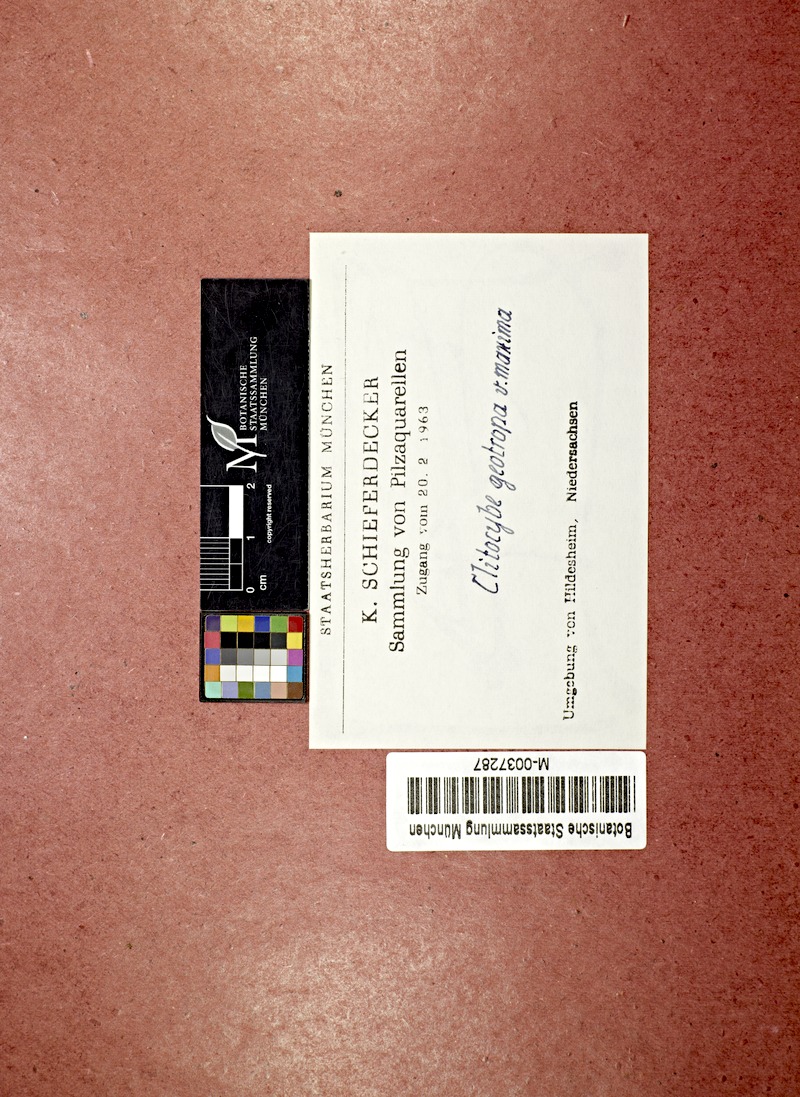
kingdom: Fungi
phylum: Basidiomycota
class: Agaricomycetes
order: Agaricales
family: Tricholomataceae
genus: Infundibulicybe
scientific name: Infundibulicybe gibba
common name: Common funnel
